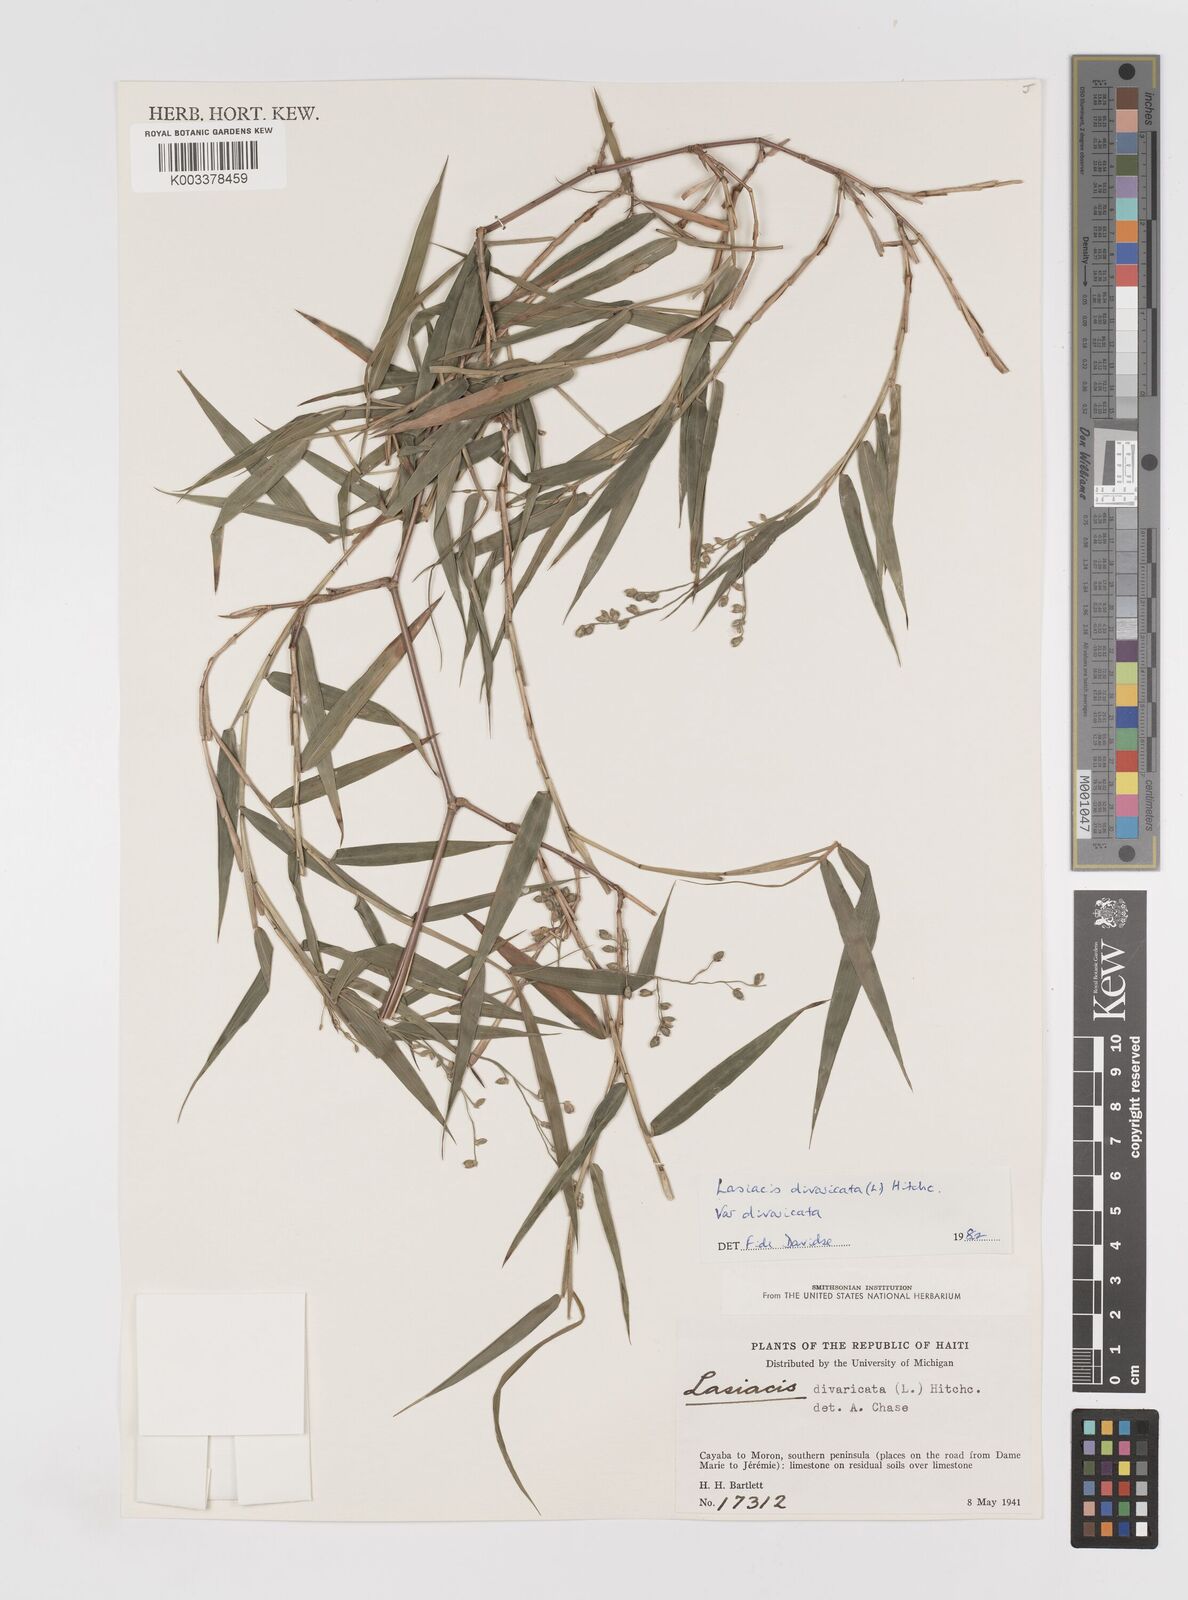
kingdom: Plantae
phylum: Tracheophyta
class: Liliopsida
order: Poales
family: Poaceae
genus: Lasiacis
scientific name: Lasiacis divaricata
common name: Smallcane
